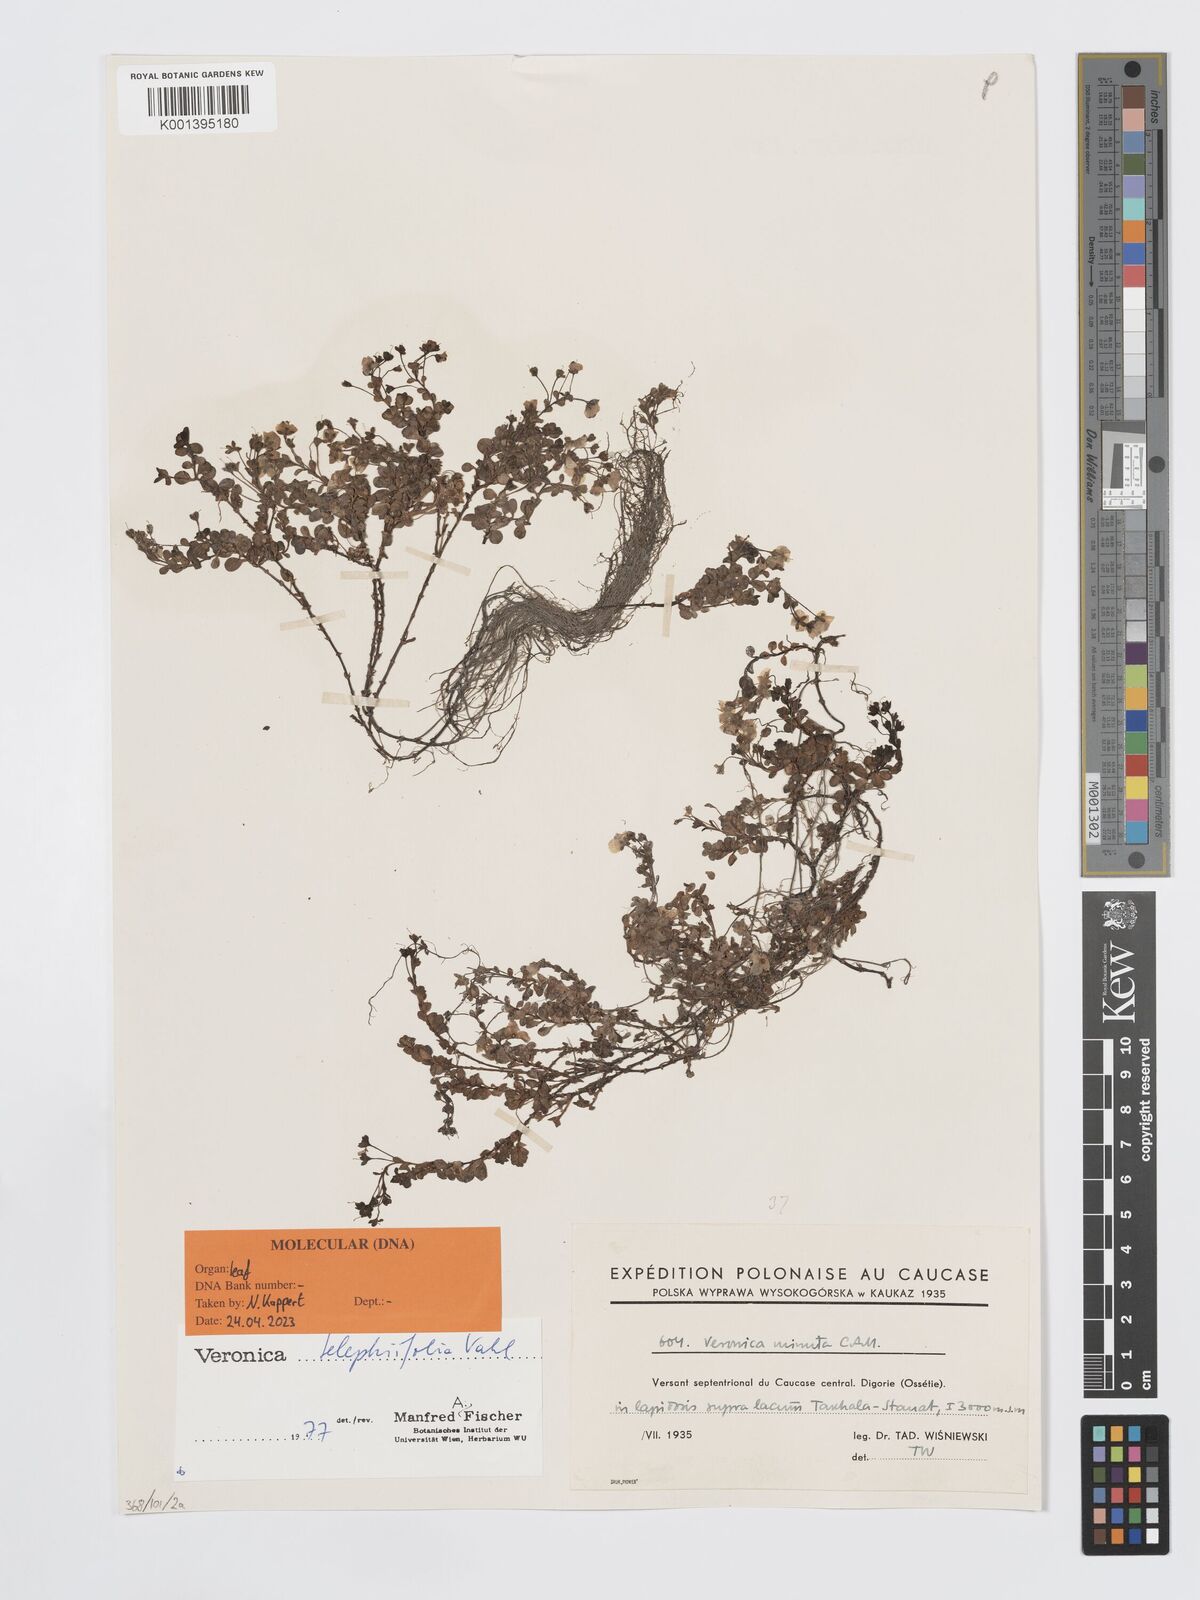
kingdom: Plantae
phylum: Tracheophyta
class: Magnoliopsida
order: Lamiales
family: Plantaginaceae
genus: Veronica
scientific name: Veronica telephiifolia
